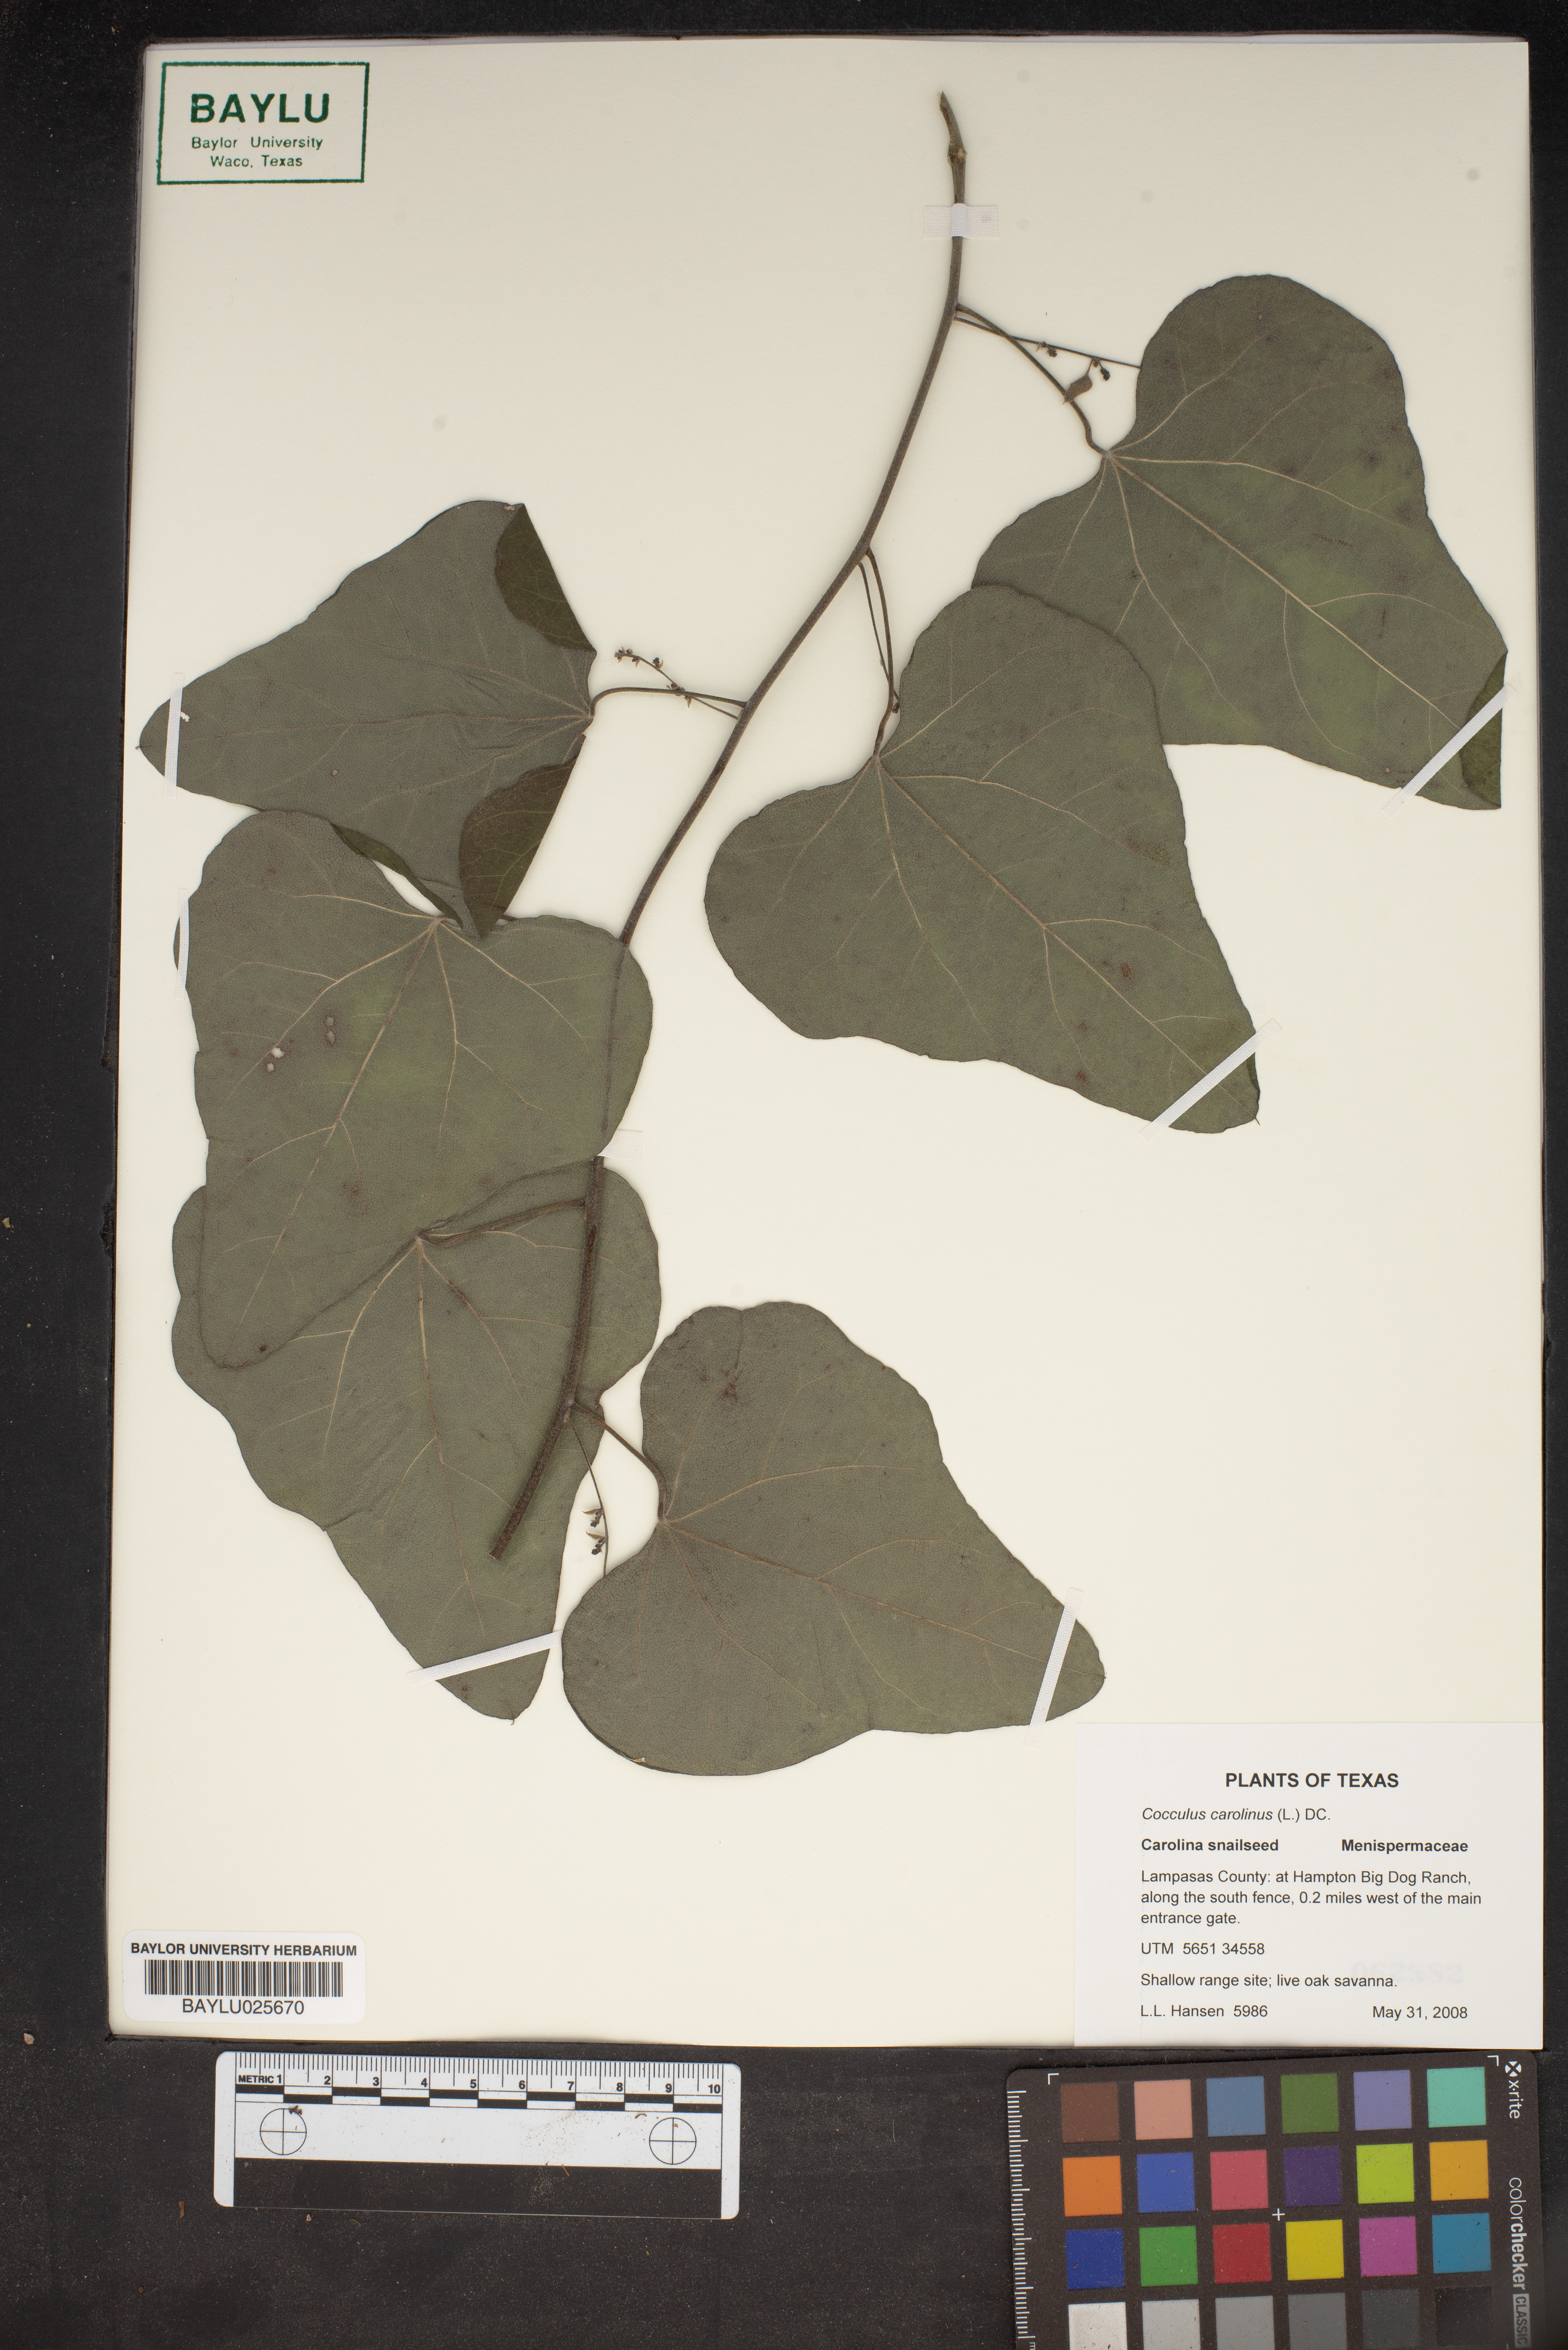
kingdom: Plantae
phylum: Tracheophyta
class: Magnoliopsida
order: Ranunculales
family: Menispermaceae
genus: Cocculus
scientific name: Cocculus carolinus
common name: Carolina moonseed
